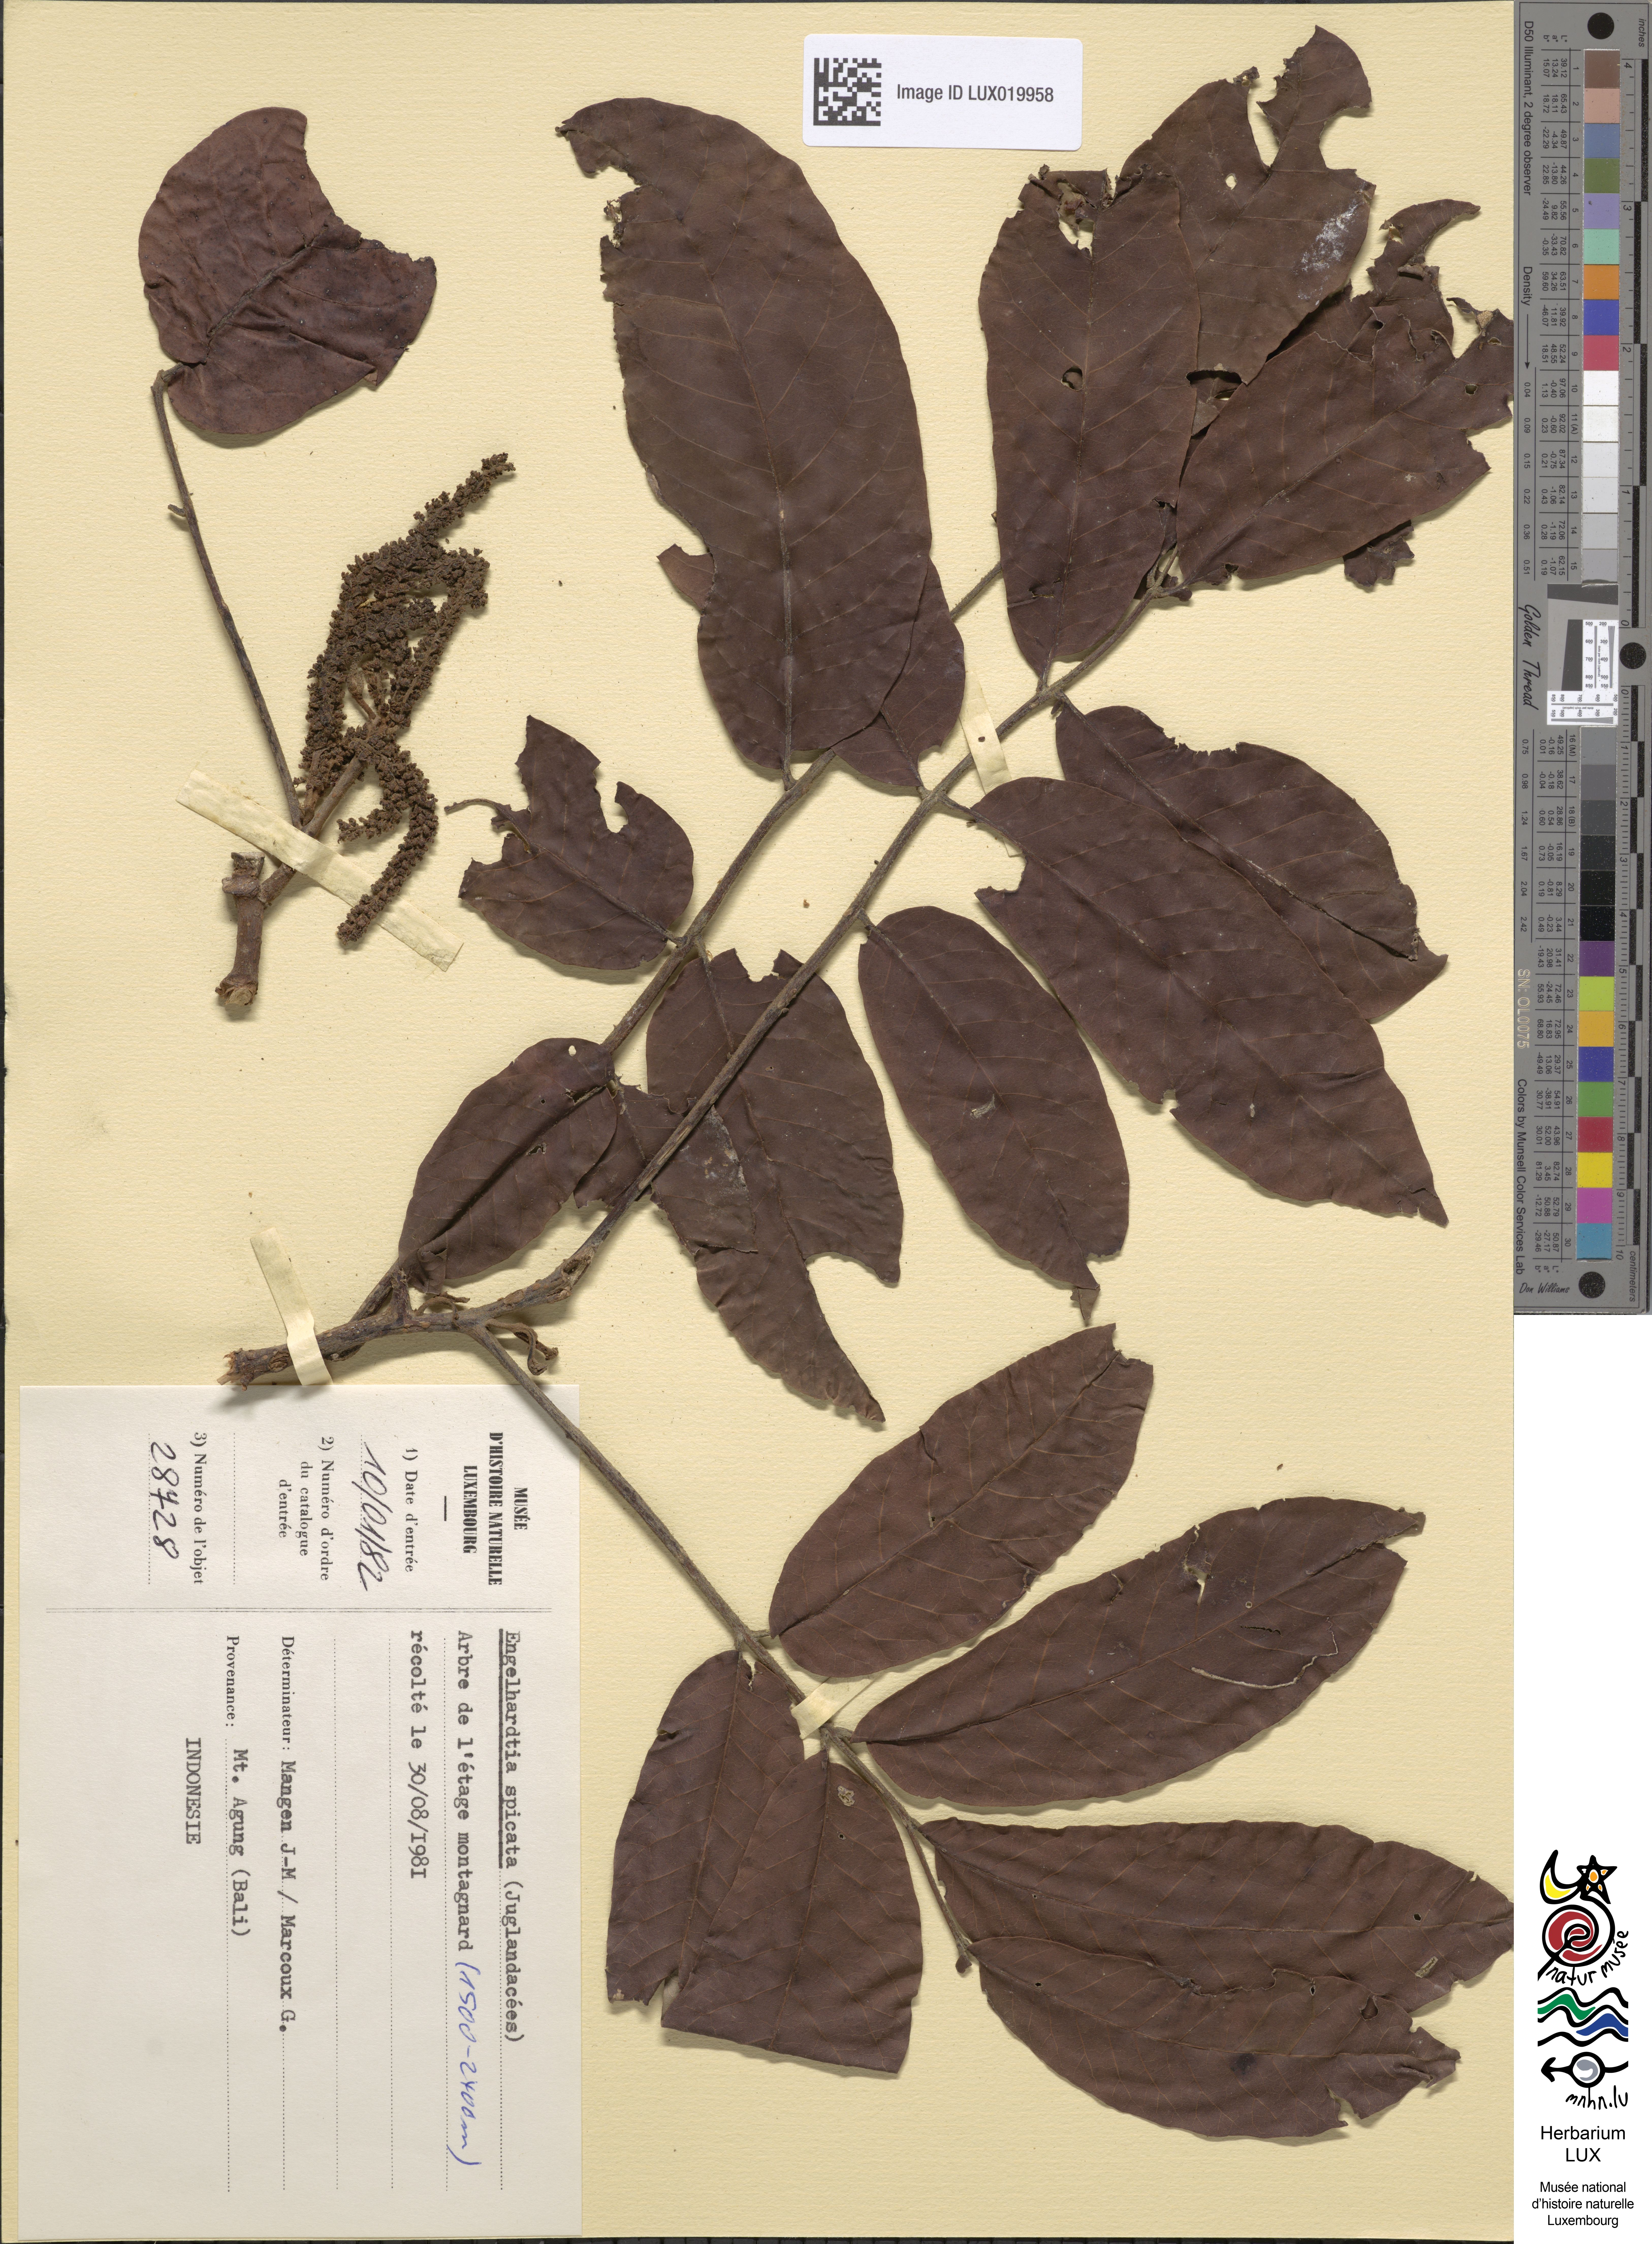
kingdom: Plantae
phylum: Tracheophyta
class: Magnoliopsida
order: Fagales
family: Juglandaceae
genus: Engelhardtia
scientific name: Engelhardtia spicata
